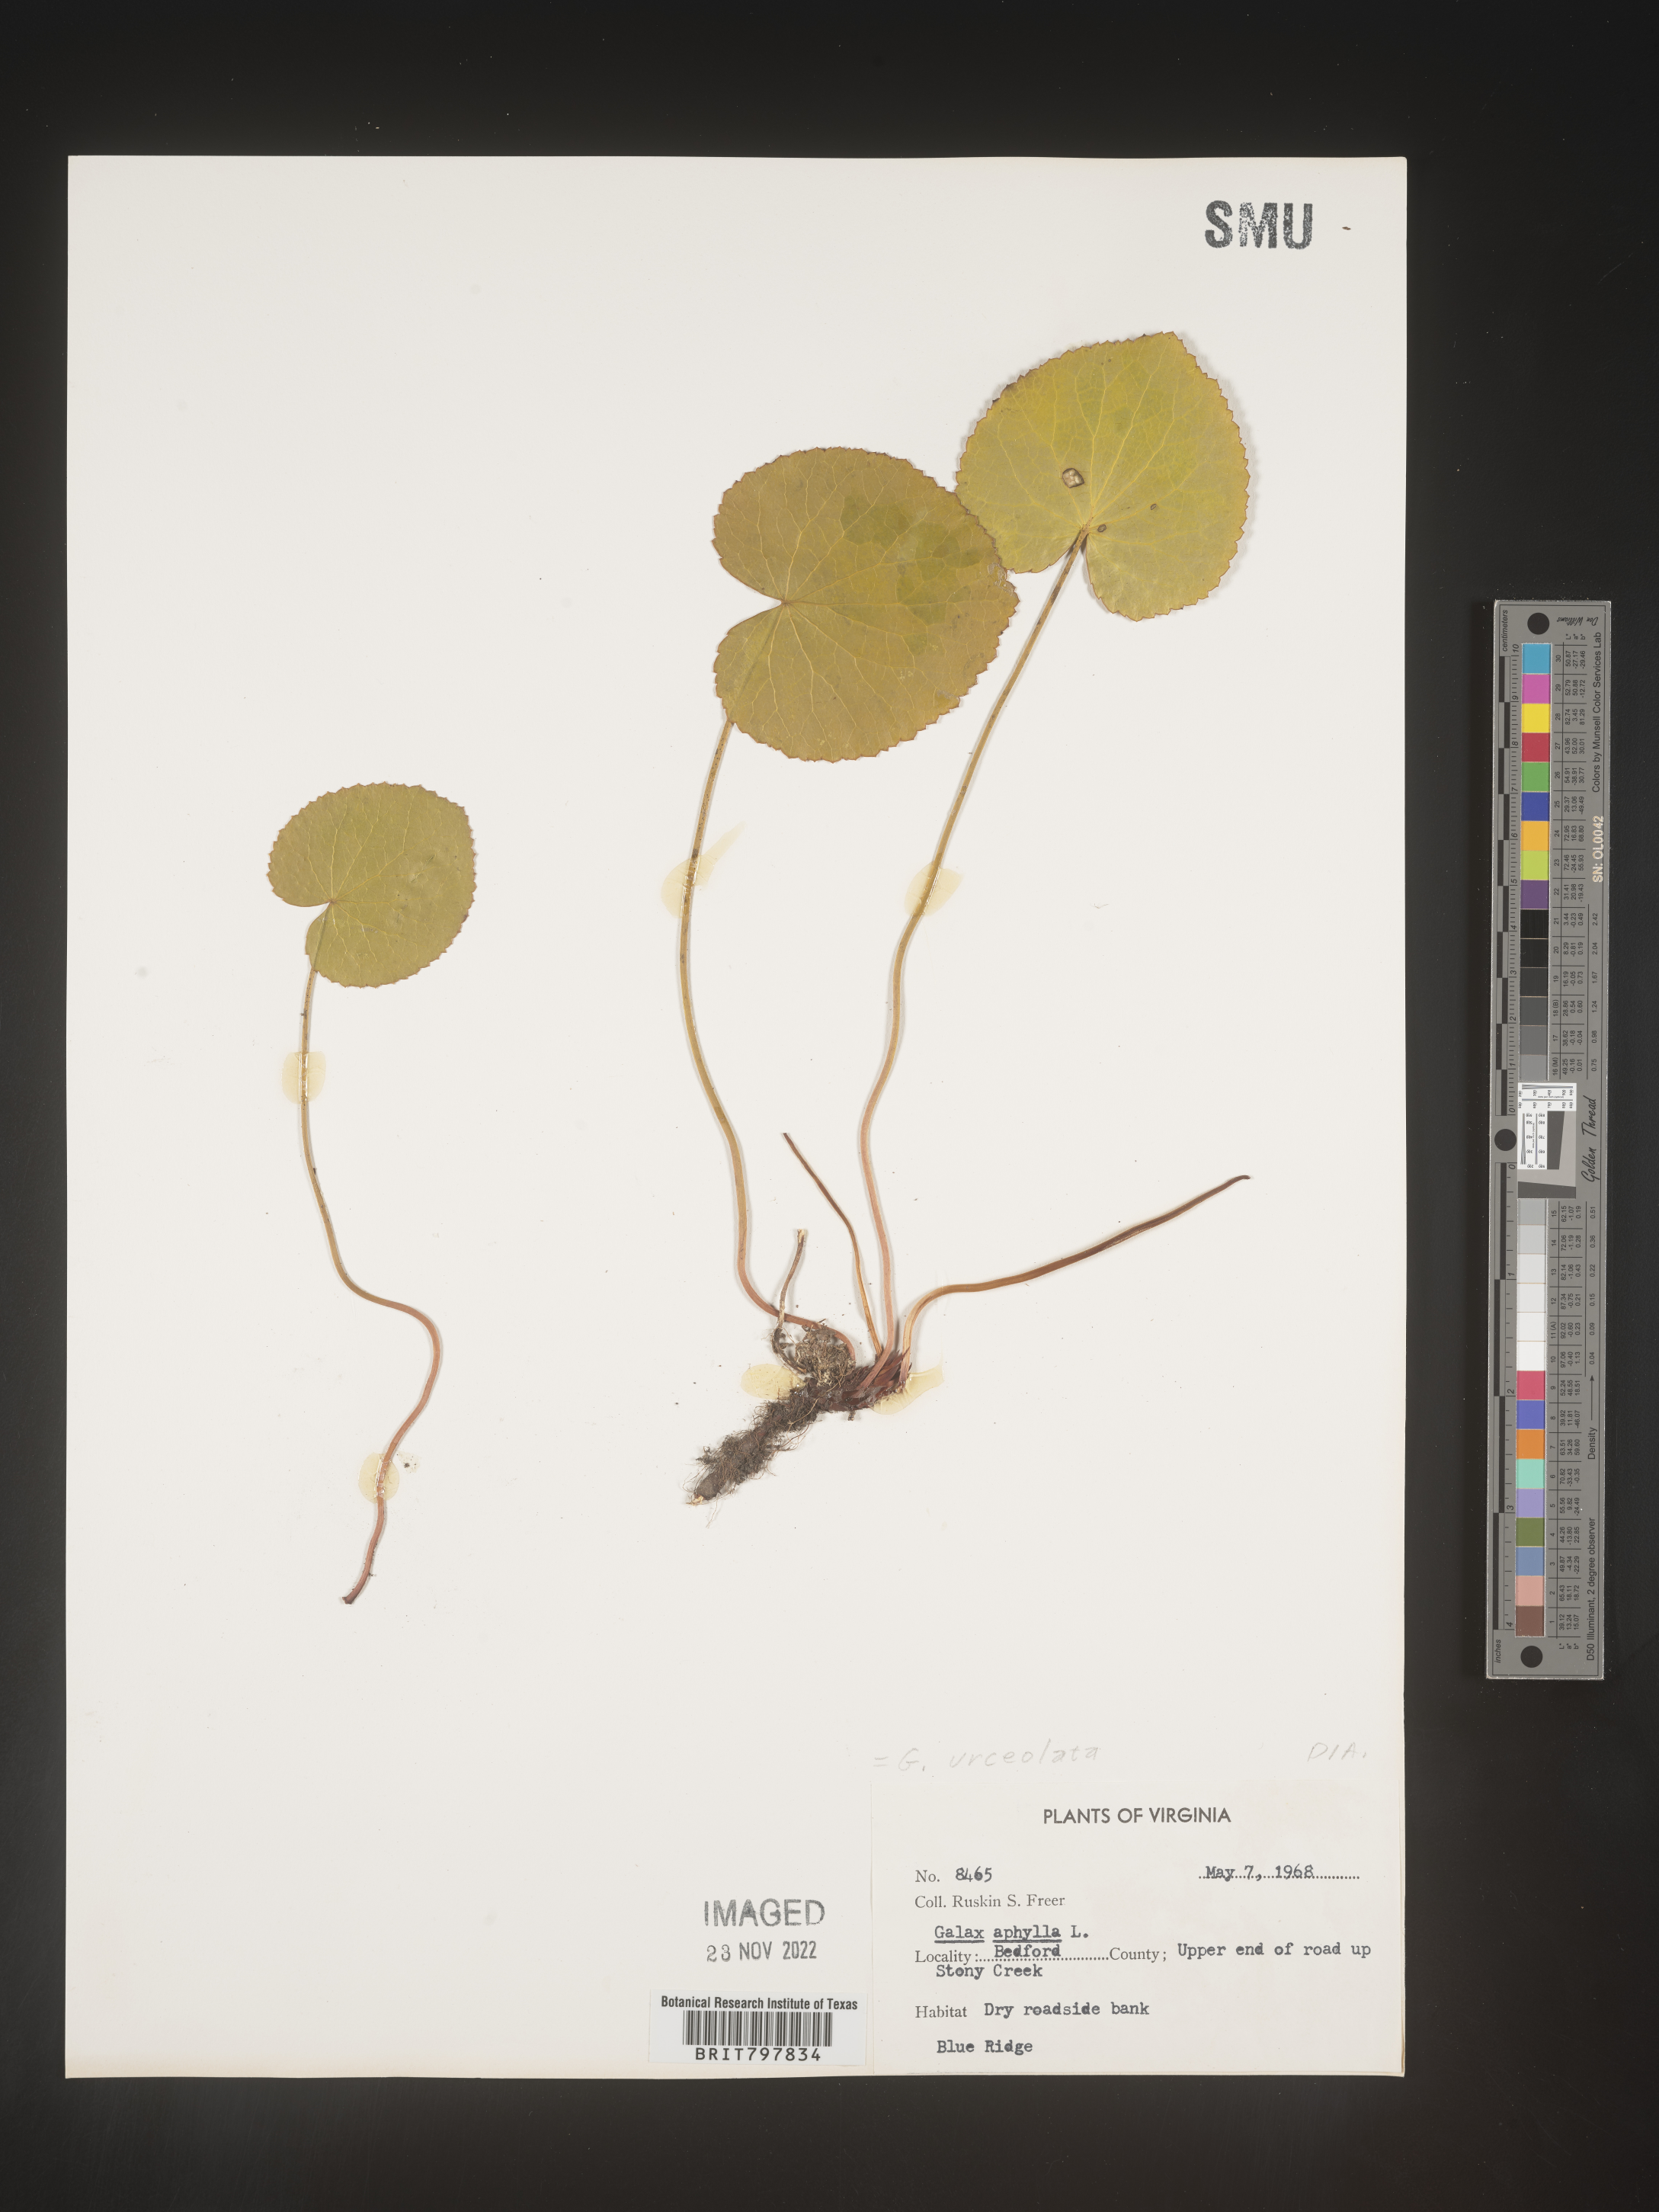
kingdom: Plantae
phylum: Tracheophyta
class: Magnoliopsida
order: Ericales
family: Diapensiaceae
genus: Galax
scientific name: Galax
